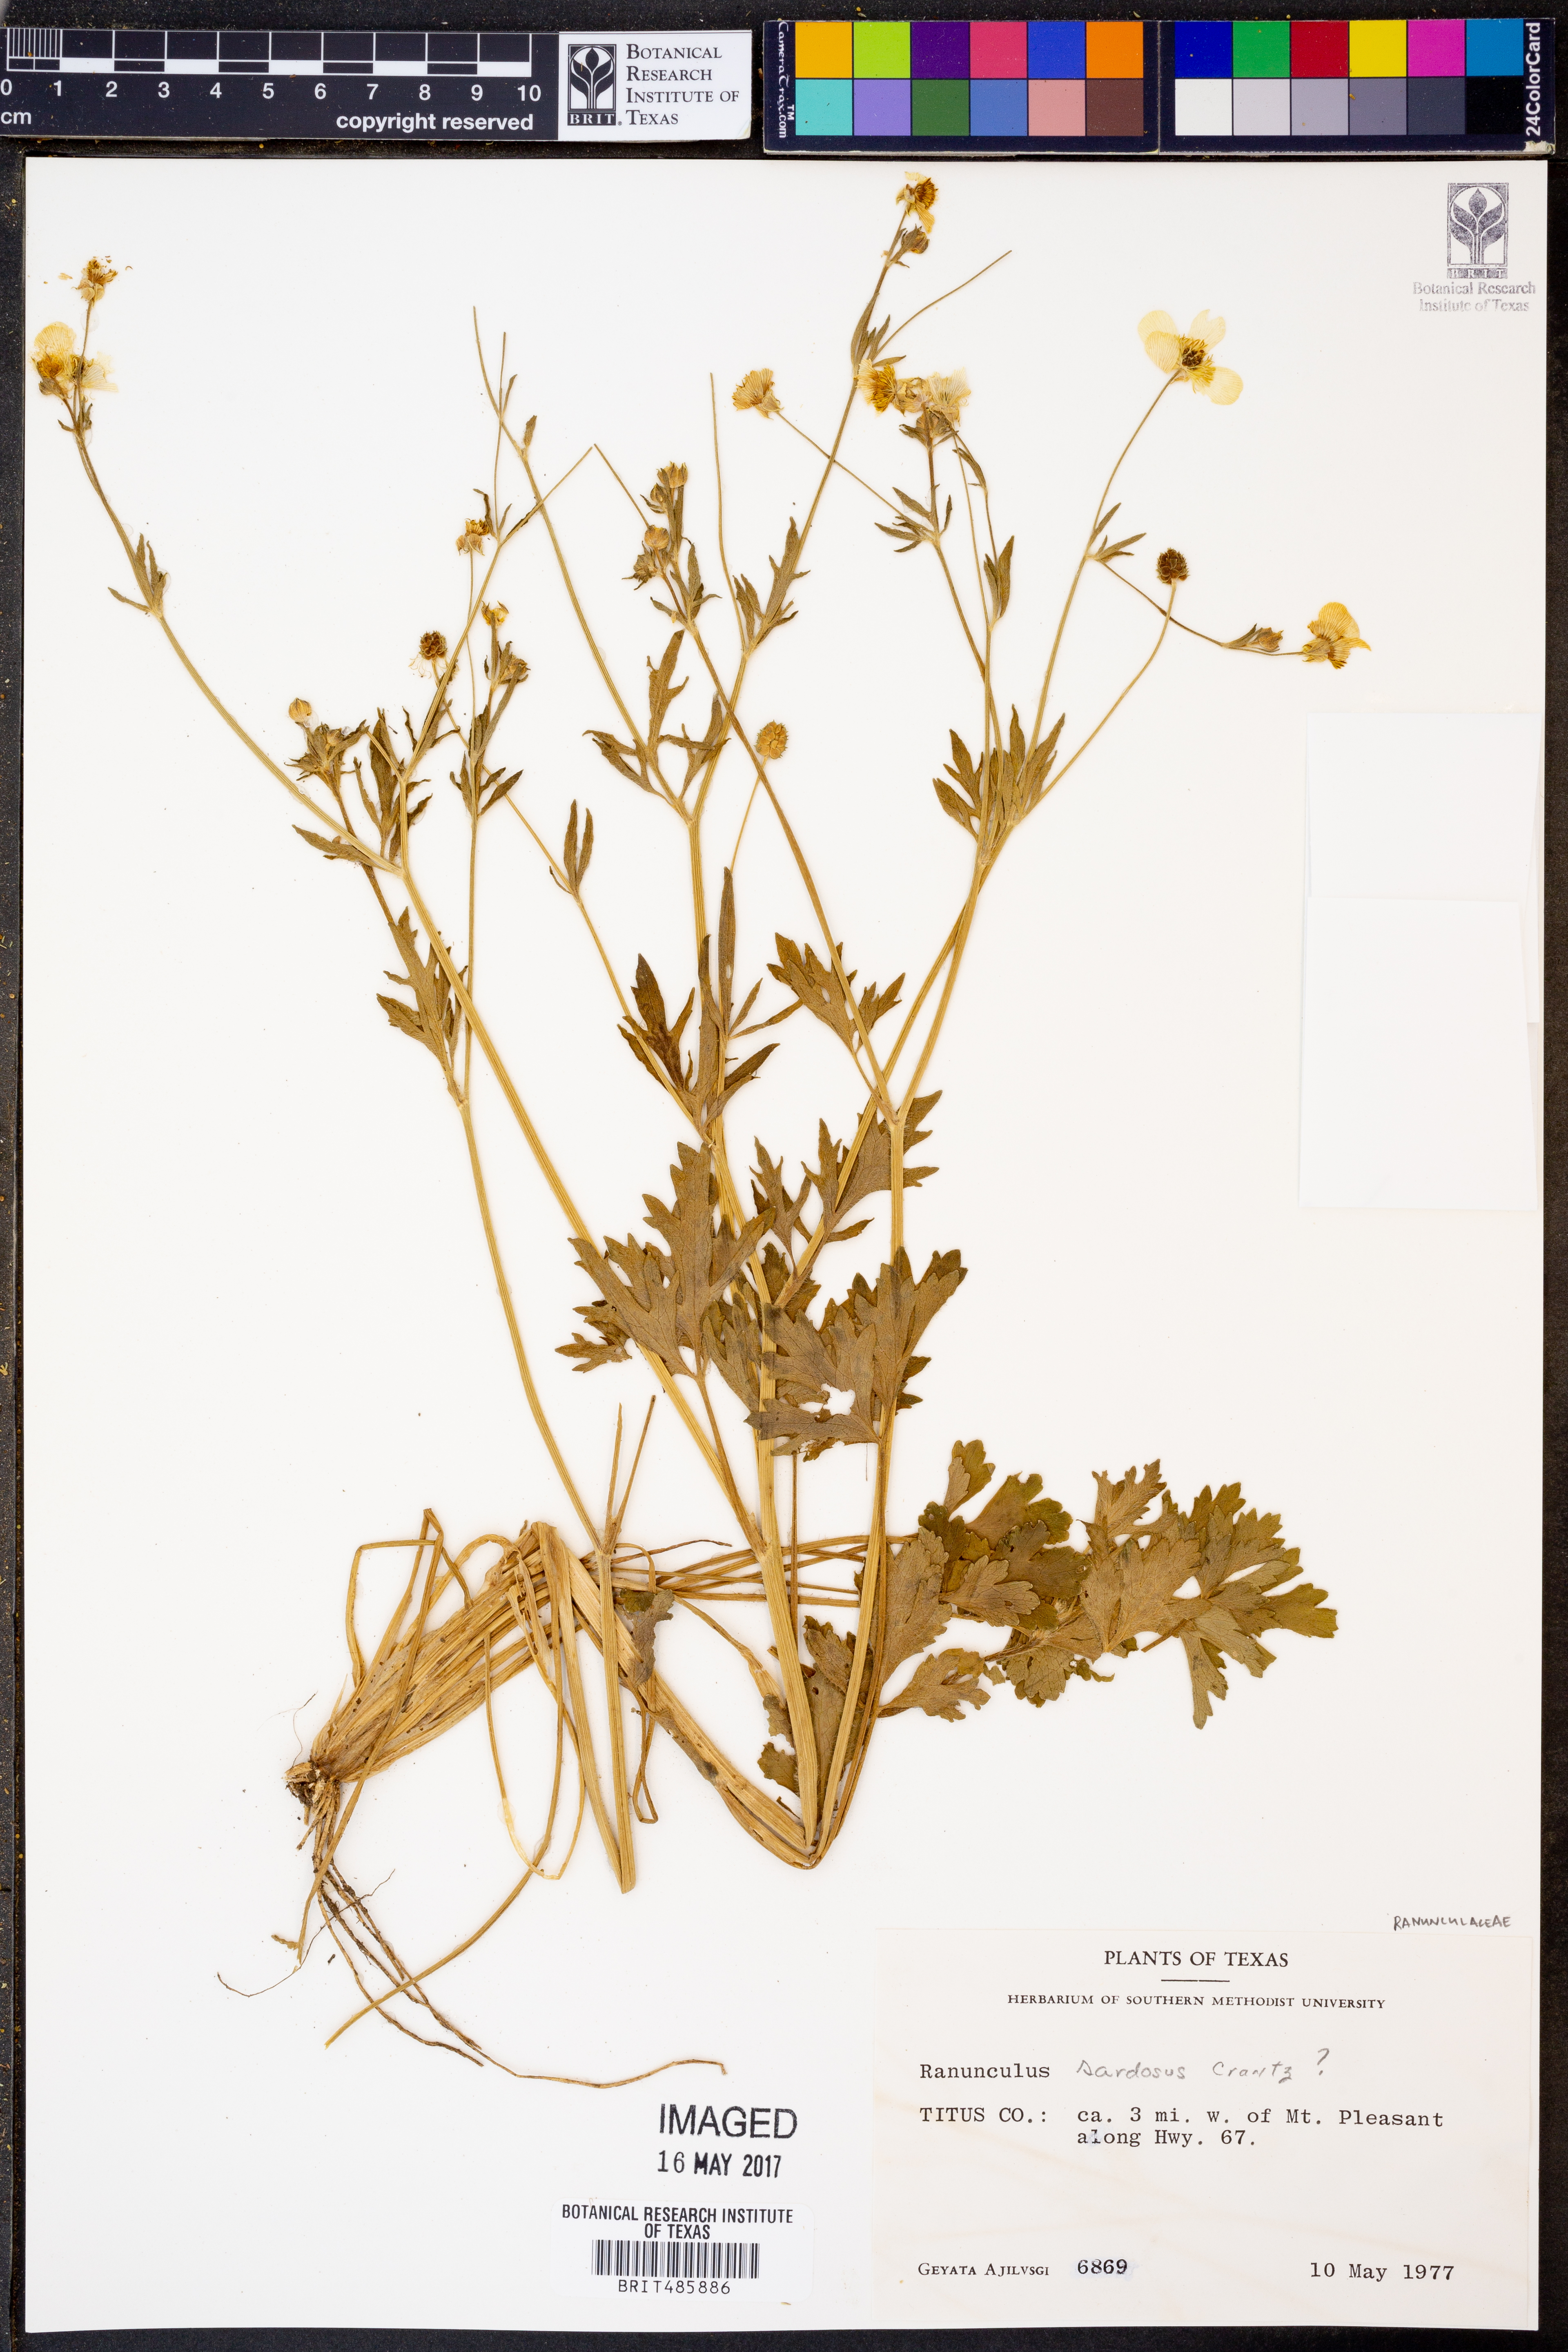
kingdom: Plantae
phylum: Tracheophyta
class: Magnoliopsida
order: Ranunculales
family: Ranunculaceae
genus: Ranunculus
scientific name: Ranunculus
